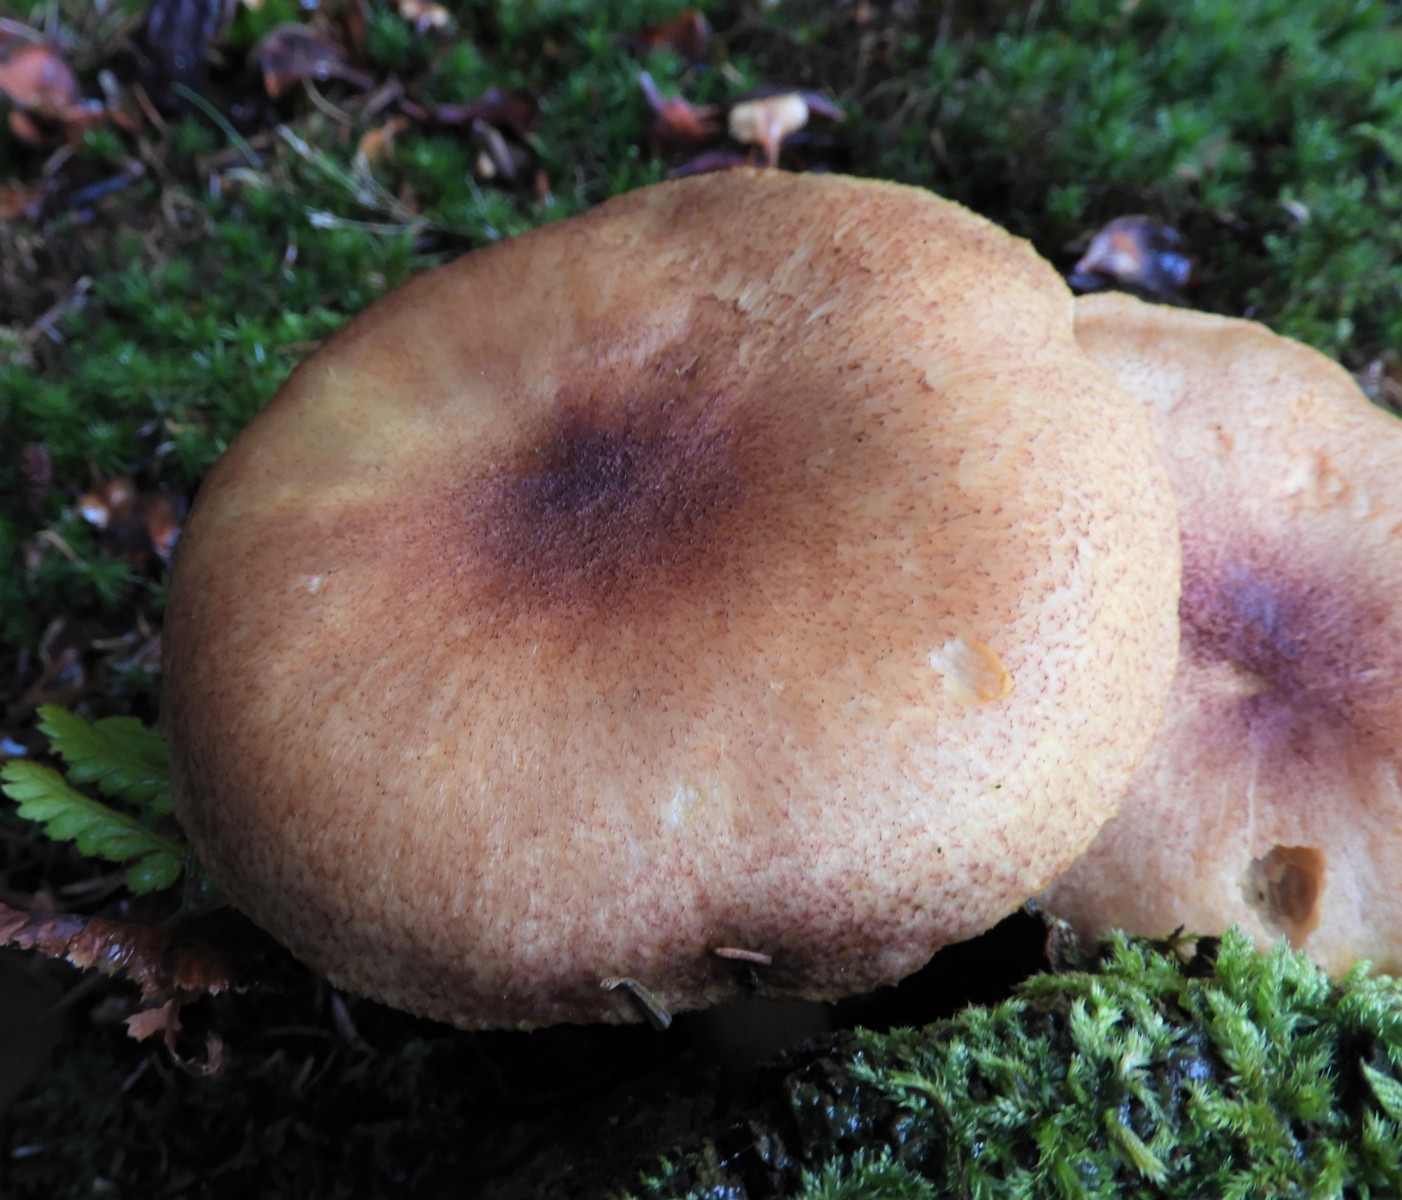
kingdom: Fungi
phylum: Basidiomycota
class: Agaricomycetes
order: Agaricales
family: Tricholomataceae
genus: Tricholomopsis
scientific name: Tricholomopsis rutilans
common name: purpur-væbnerhat
